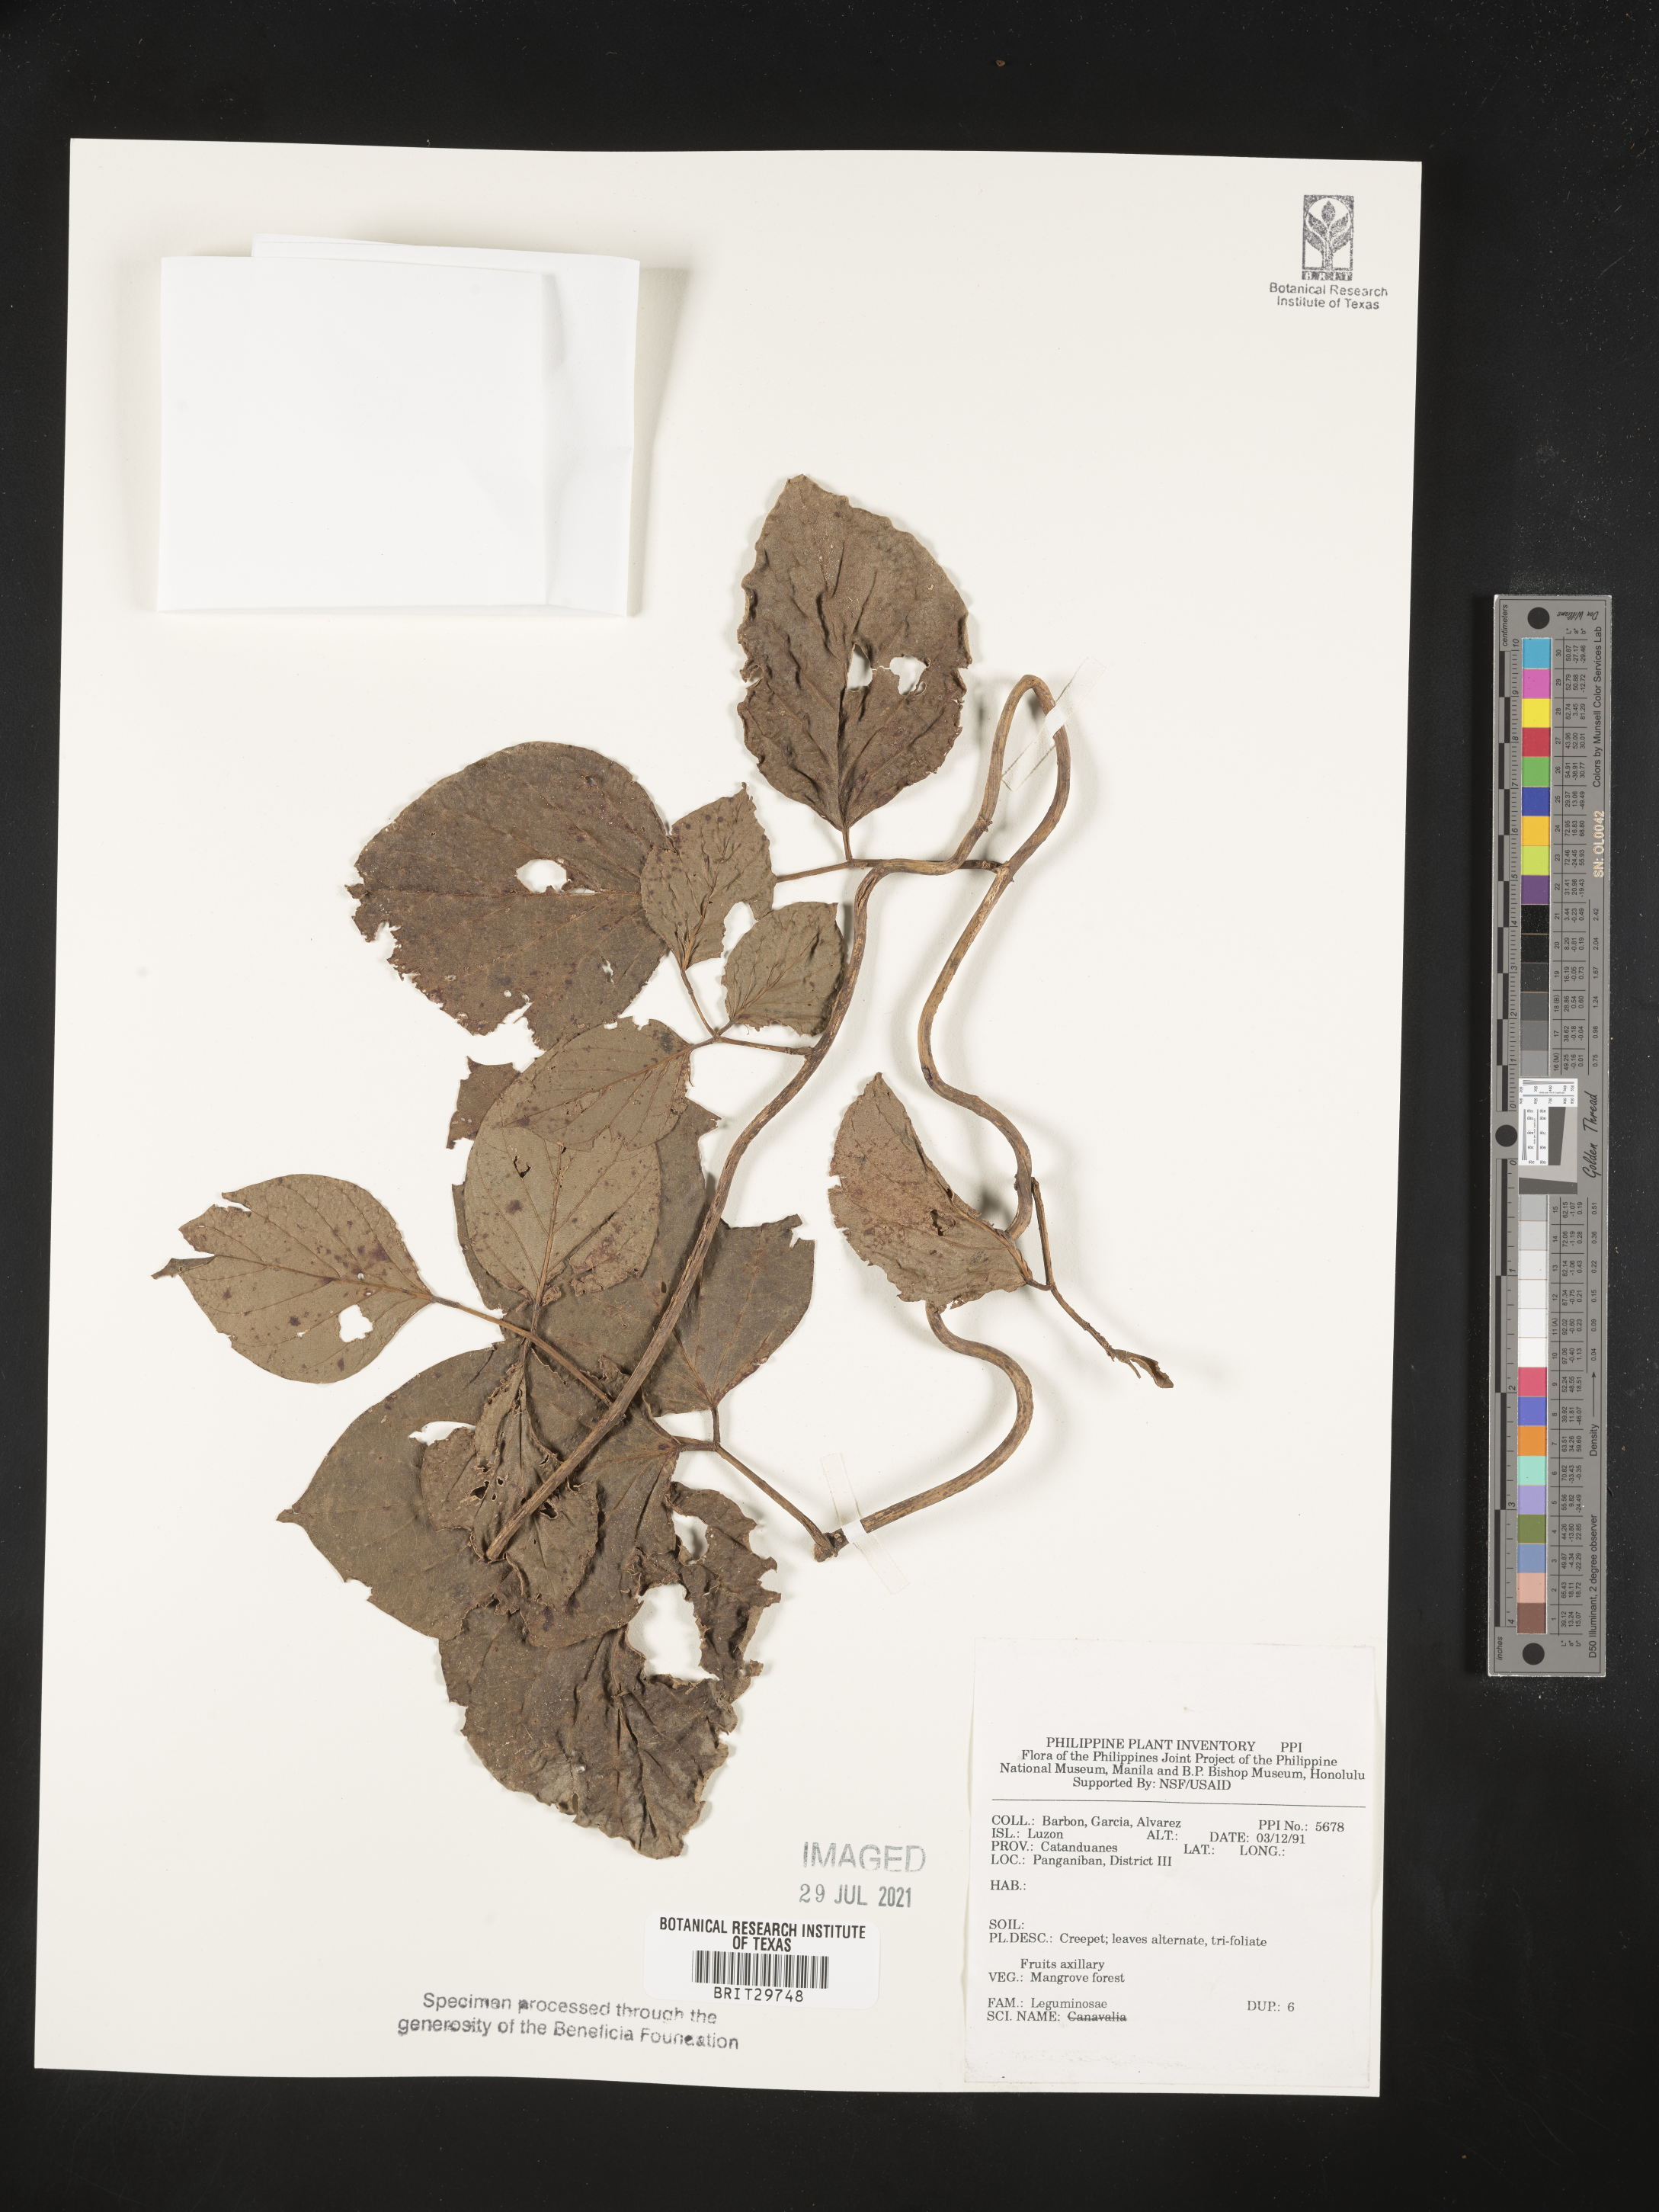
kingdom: Plantae
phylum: Tracheophyta
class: Magnoliopsida
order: Fabales
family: Fabaceae
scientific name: Fabaceae
